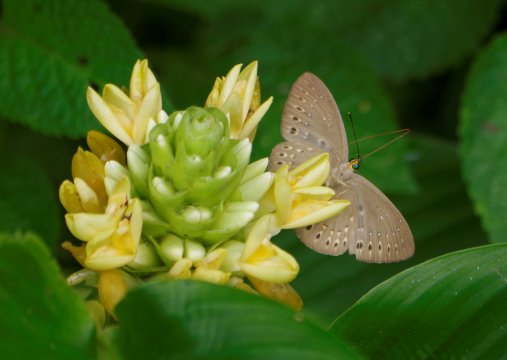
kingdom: Animalia
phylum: Cnidaria
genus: Eurybia
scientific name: Eurybia elvina
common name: Blind Eurybia
